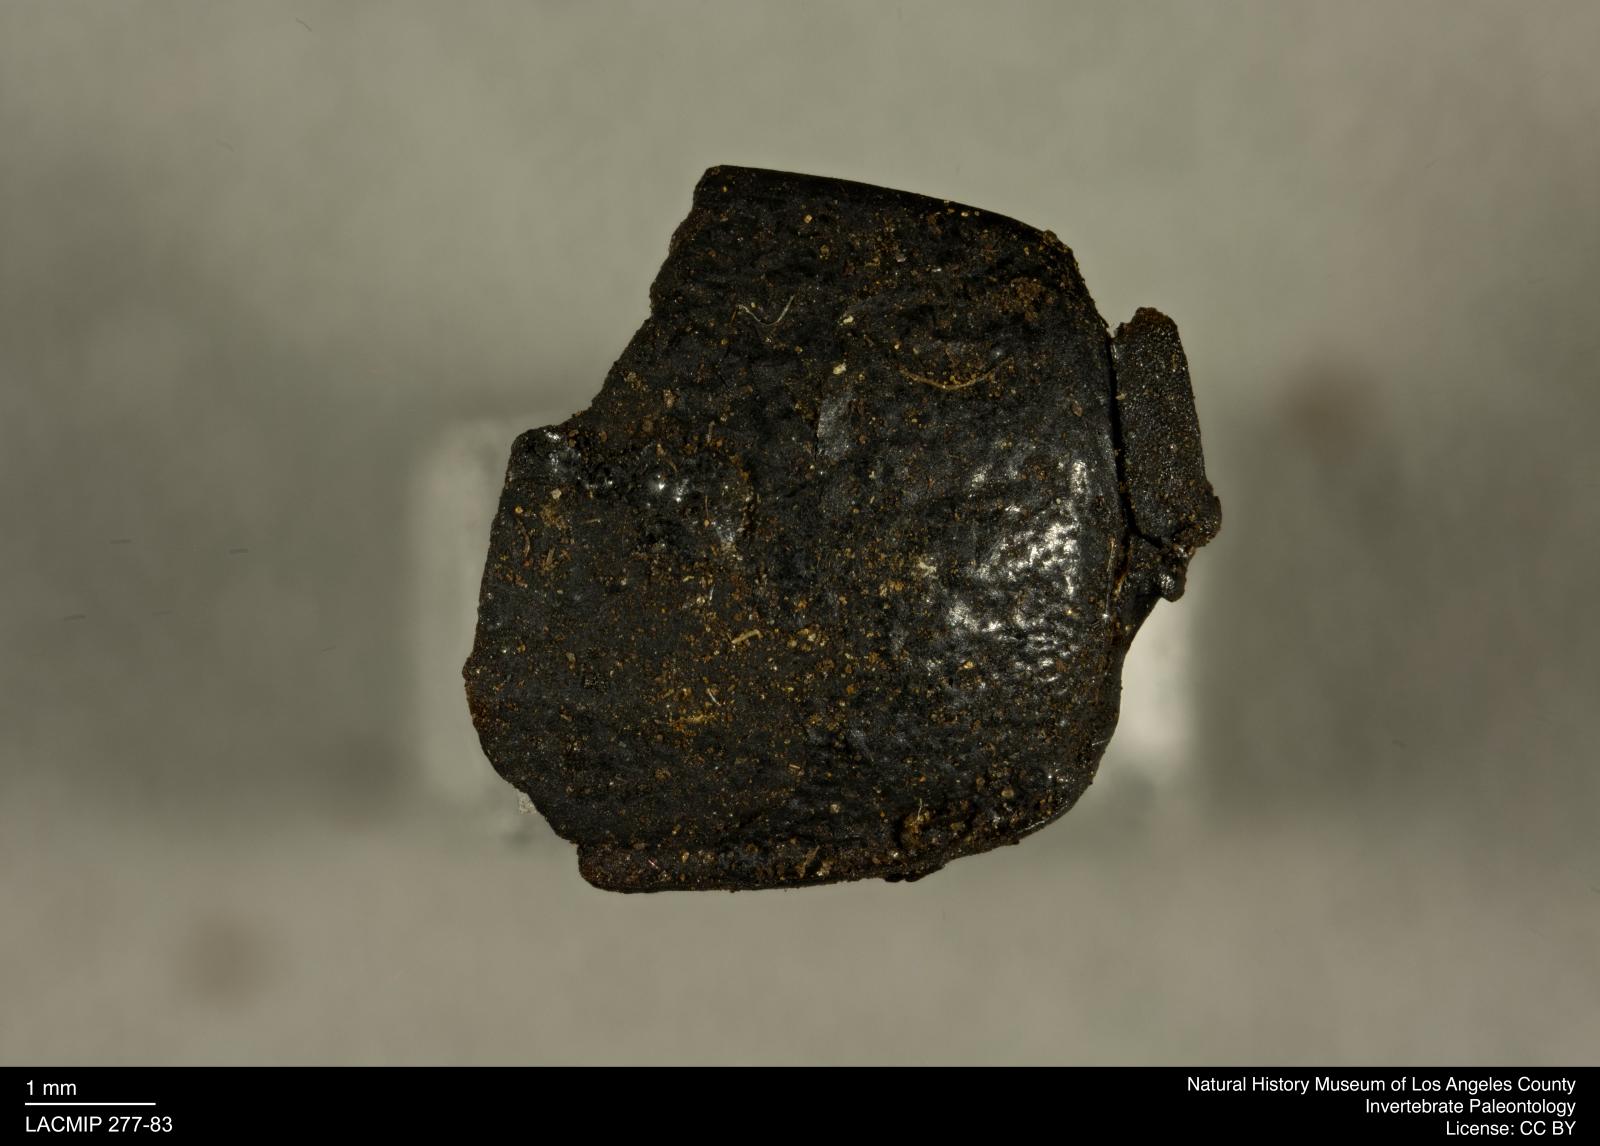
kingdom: Animalia
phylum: Arthropoda
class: Insecta
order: Coleoptera
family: Tenebrionidae
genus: Coniontis
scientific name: Coniontis abdominalis
